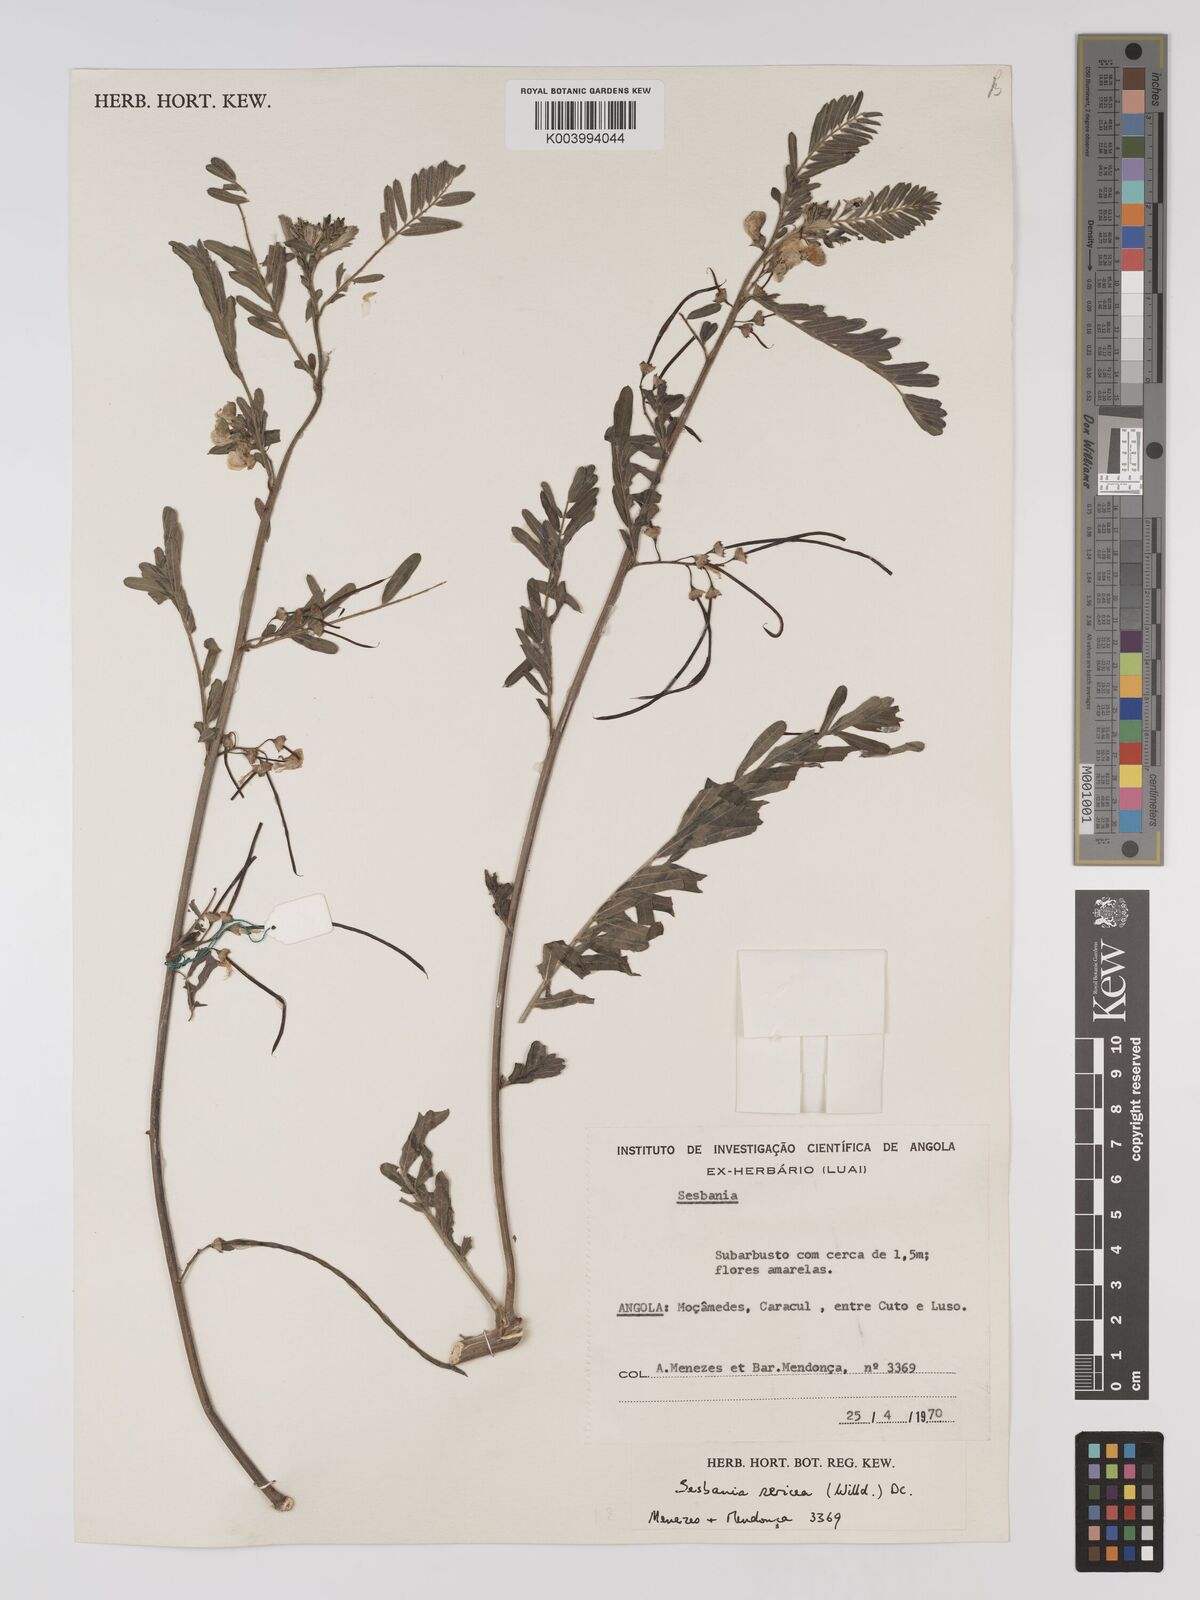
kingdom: Plantae
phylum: Tracheophyta
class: Magnoliopsida
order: Fabales
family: Fabaceae
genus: Sesbania
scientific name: Sesbania sericea
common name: Papagayo
